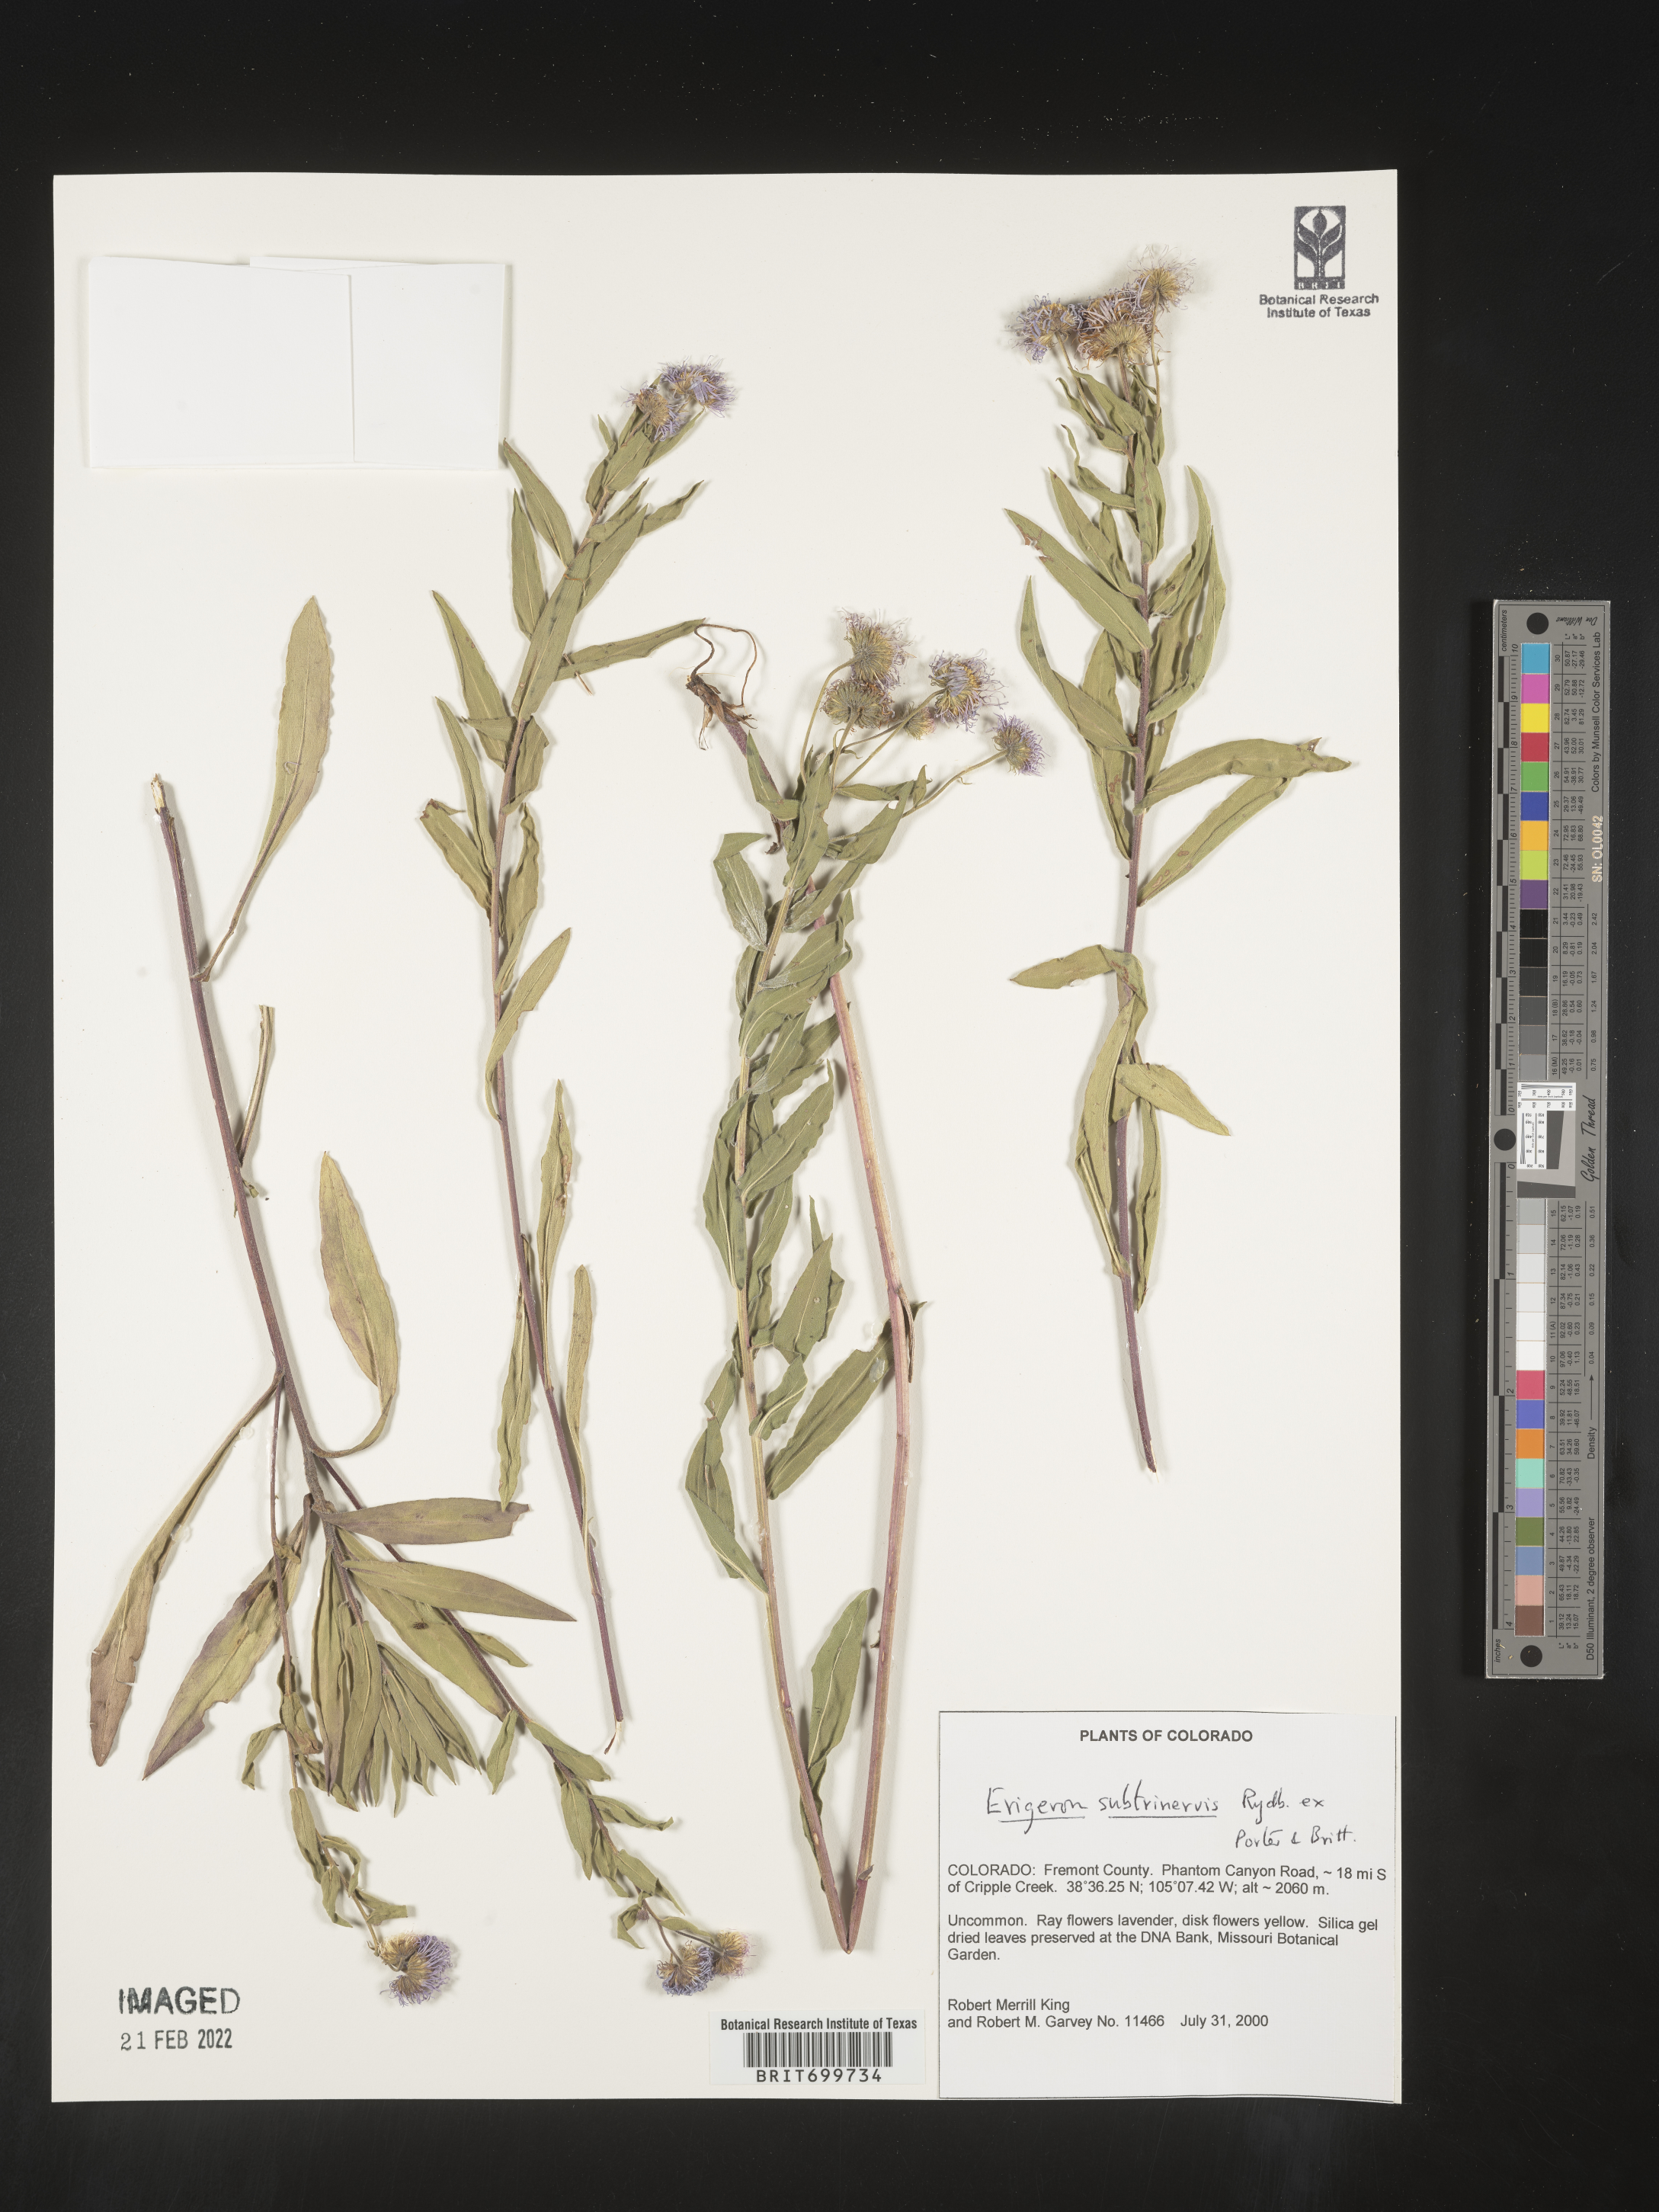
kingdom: Plantae
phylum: Tracheophyta
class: Magnoliopsida
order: Asterales
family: Asteraceae
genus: Erigeron
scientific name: Erigeron subtrinervis
